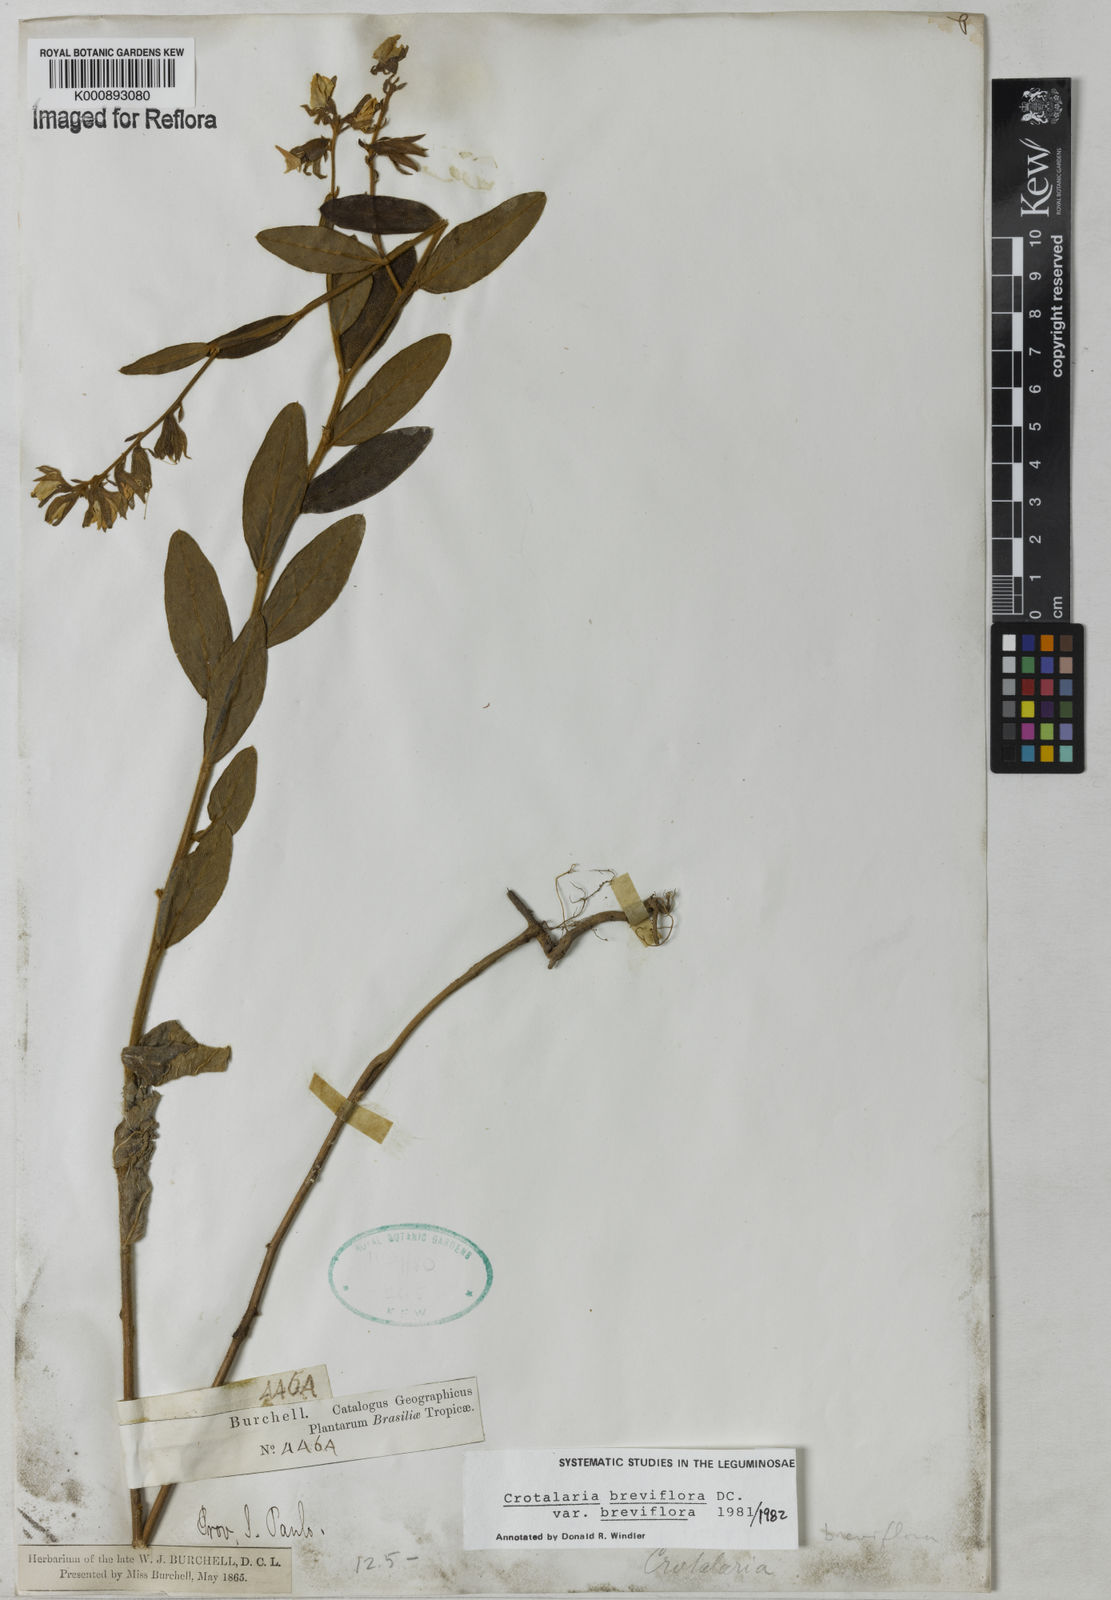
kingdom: Plantae
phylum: Tracheophyta
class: Magnoliopsida
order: Fabales
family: Fabaceae
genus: Crotalaria
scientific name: Crotalaria breviflora
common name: Short-flower crotalaria
